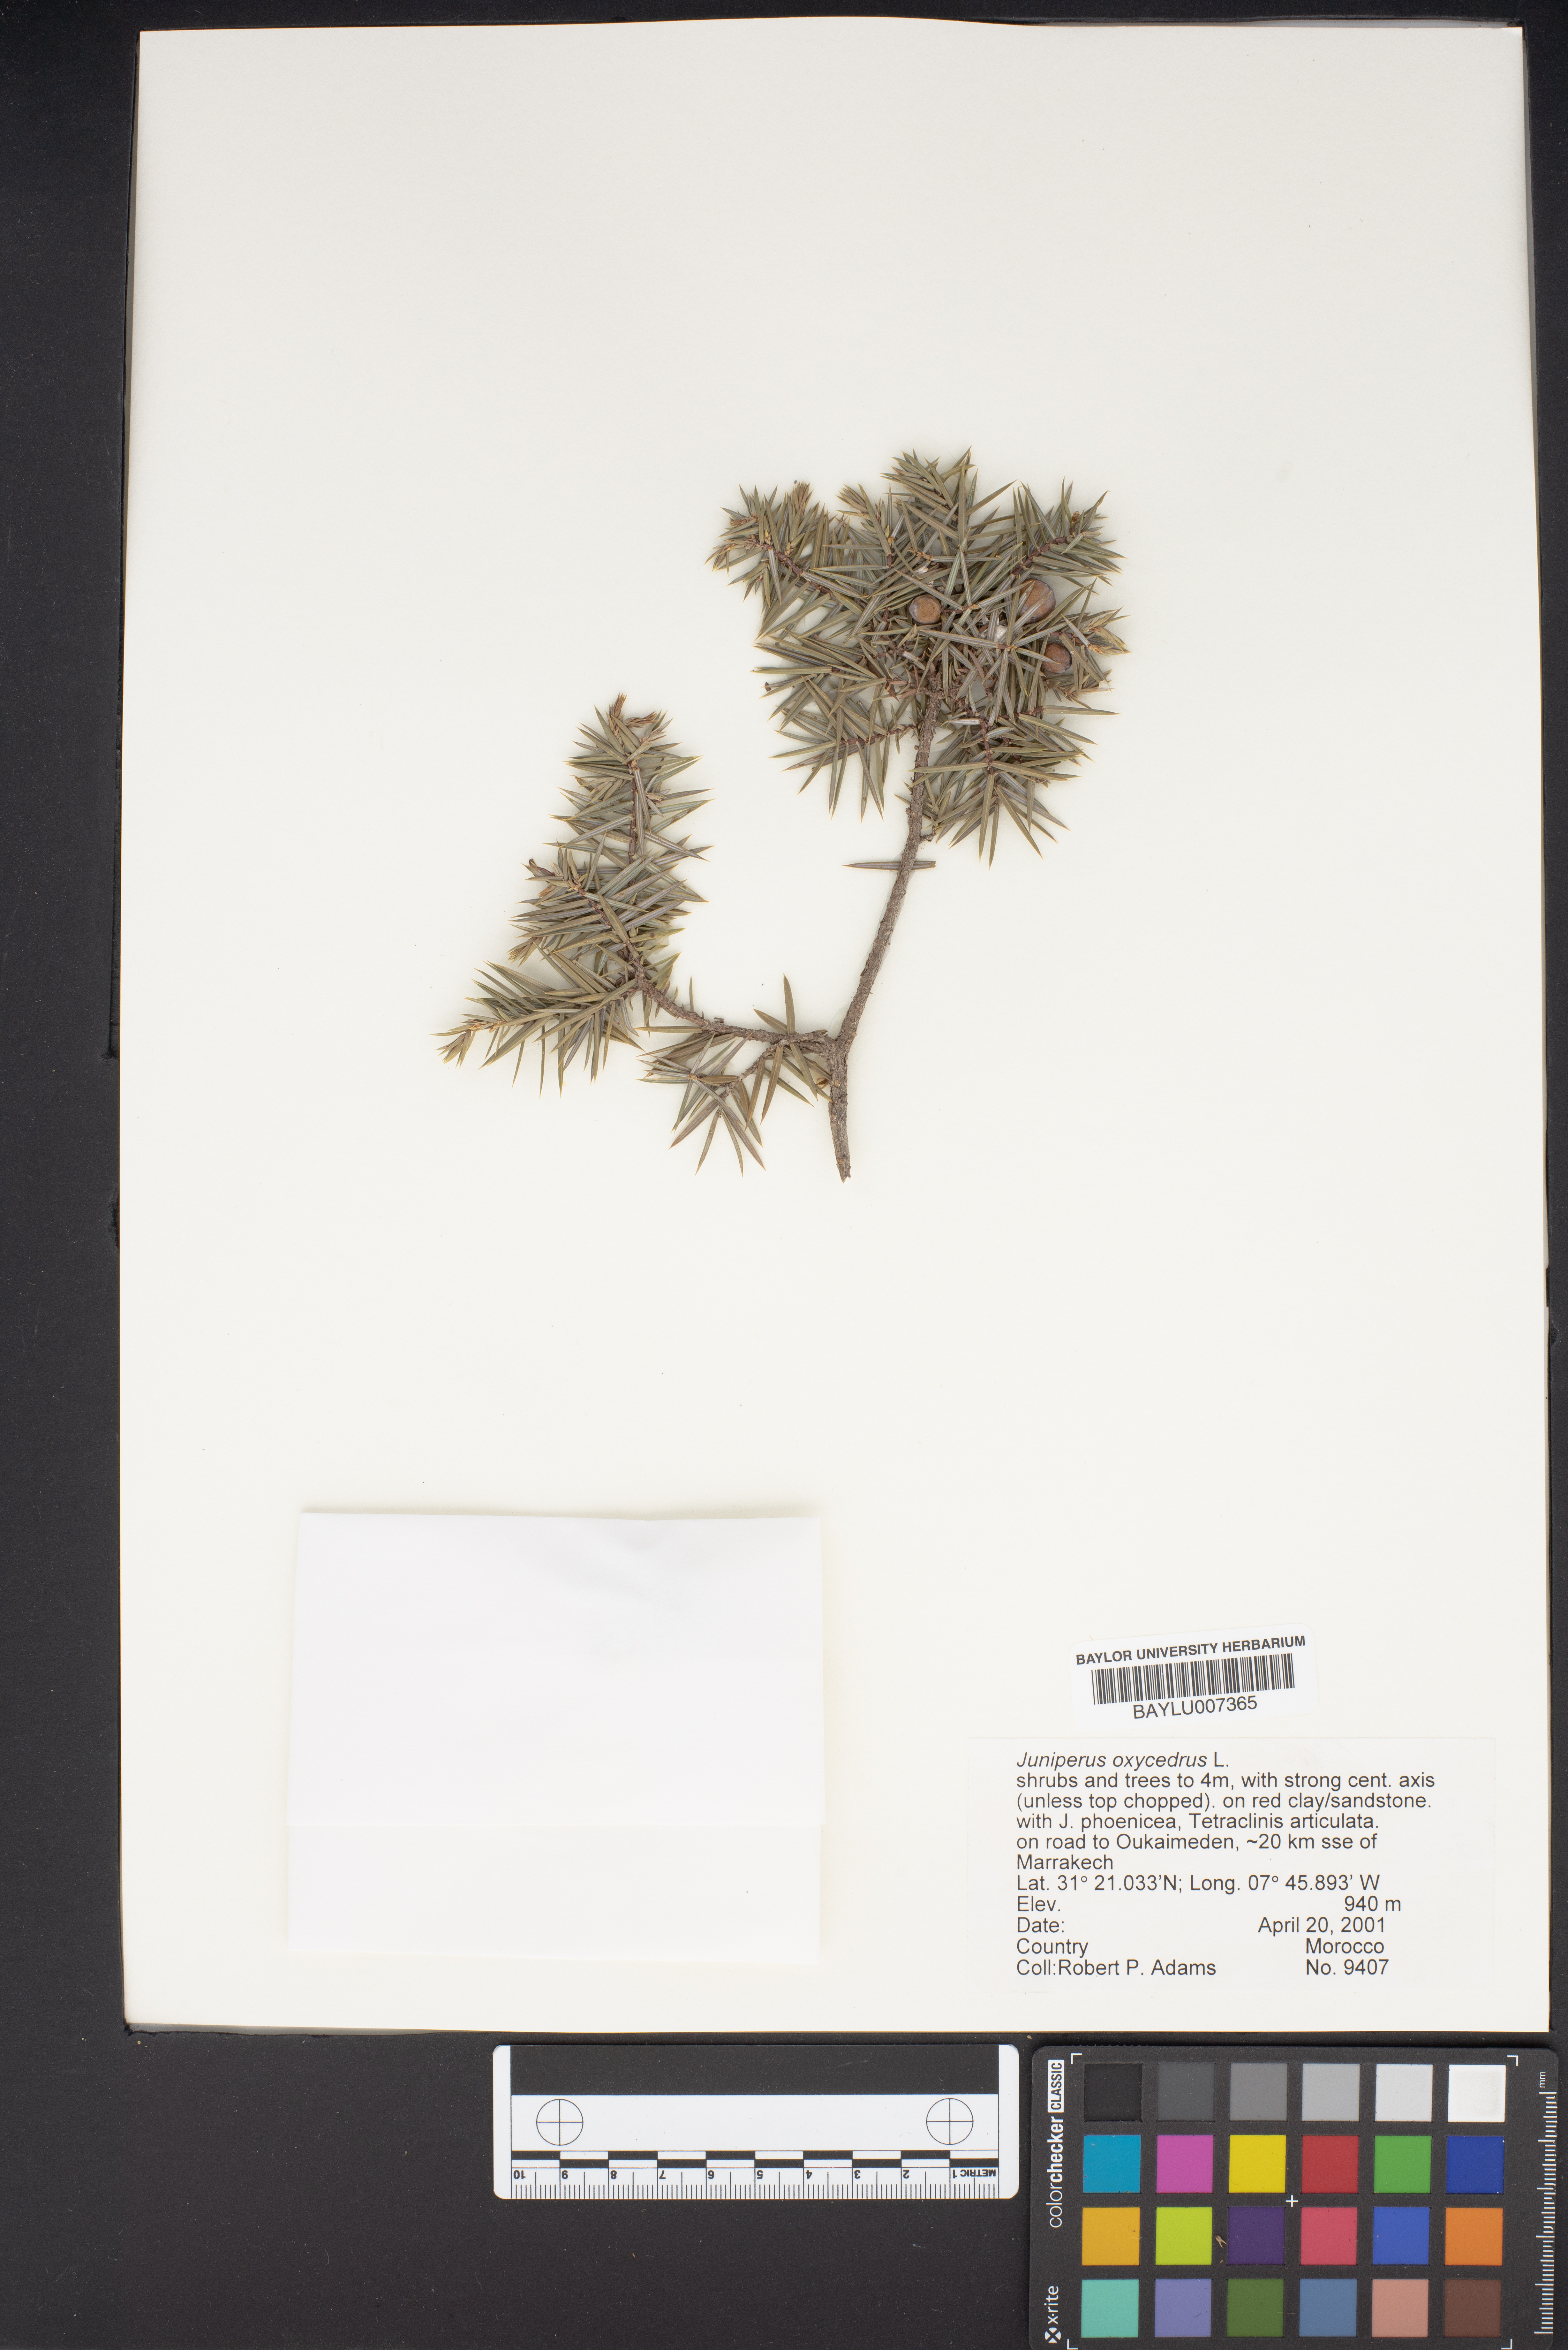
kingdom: Plantae
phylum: Tracheophyta
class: Pinopsida
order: Pinales
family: Cupressaceae
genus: Juniperus
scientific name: Juniperus oxycedrus
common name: Prickly juniper
